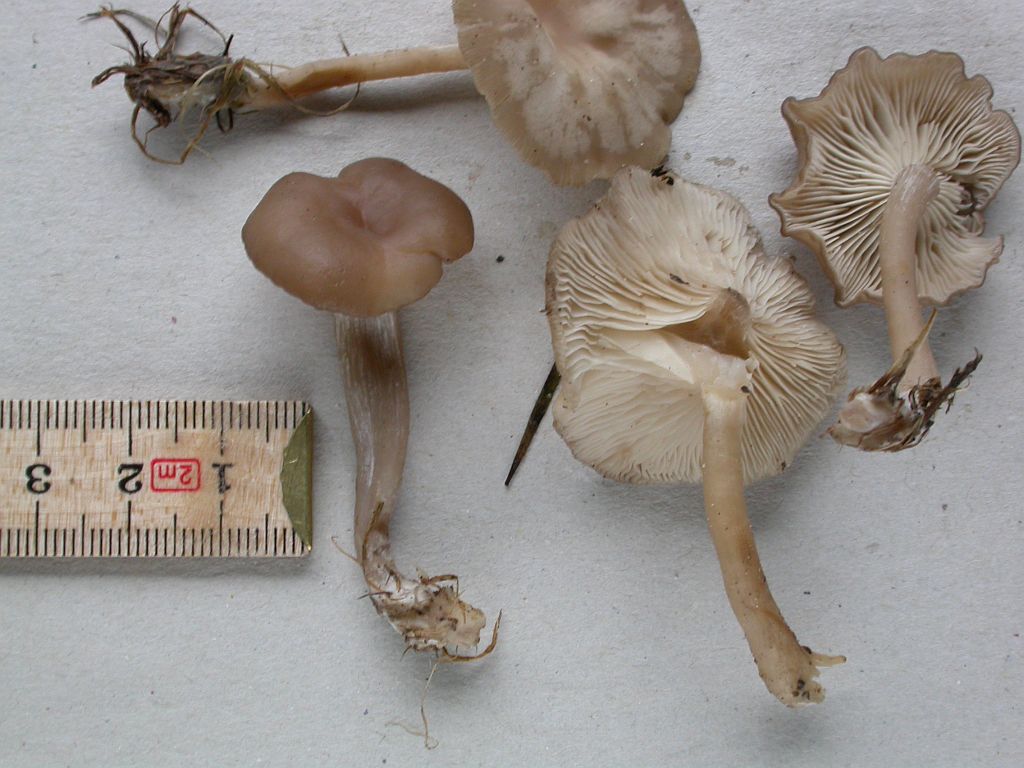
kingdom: Fungi
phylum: Basidiomycota
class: Agaricomycetes
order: Agaricales
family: Tricholomataceae
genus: Clitocybe
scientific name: Clitocybe amarescens
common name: gødnings-tragthat
